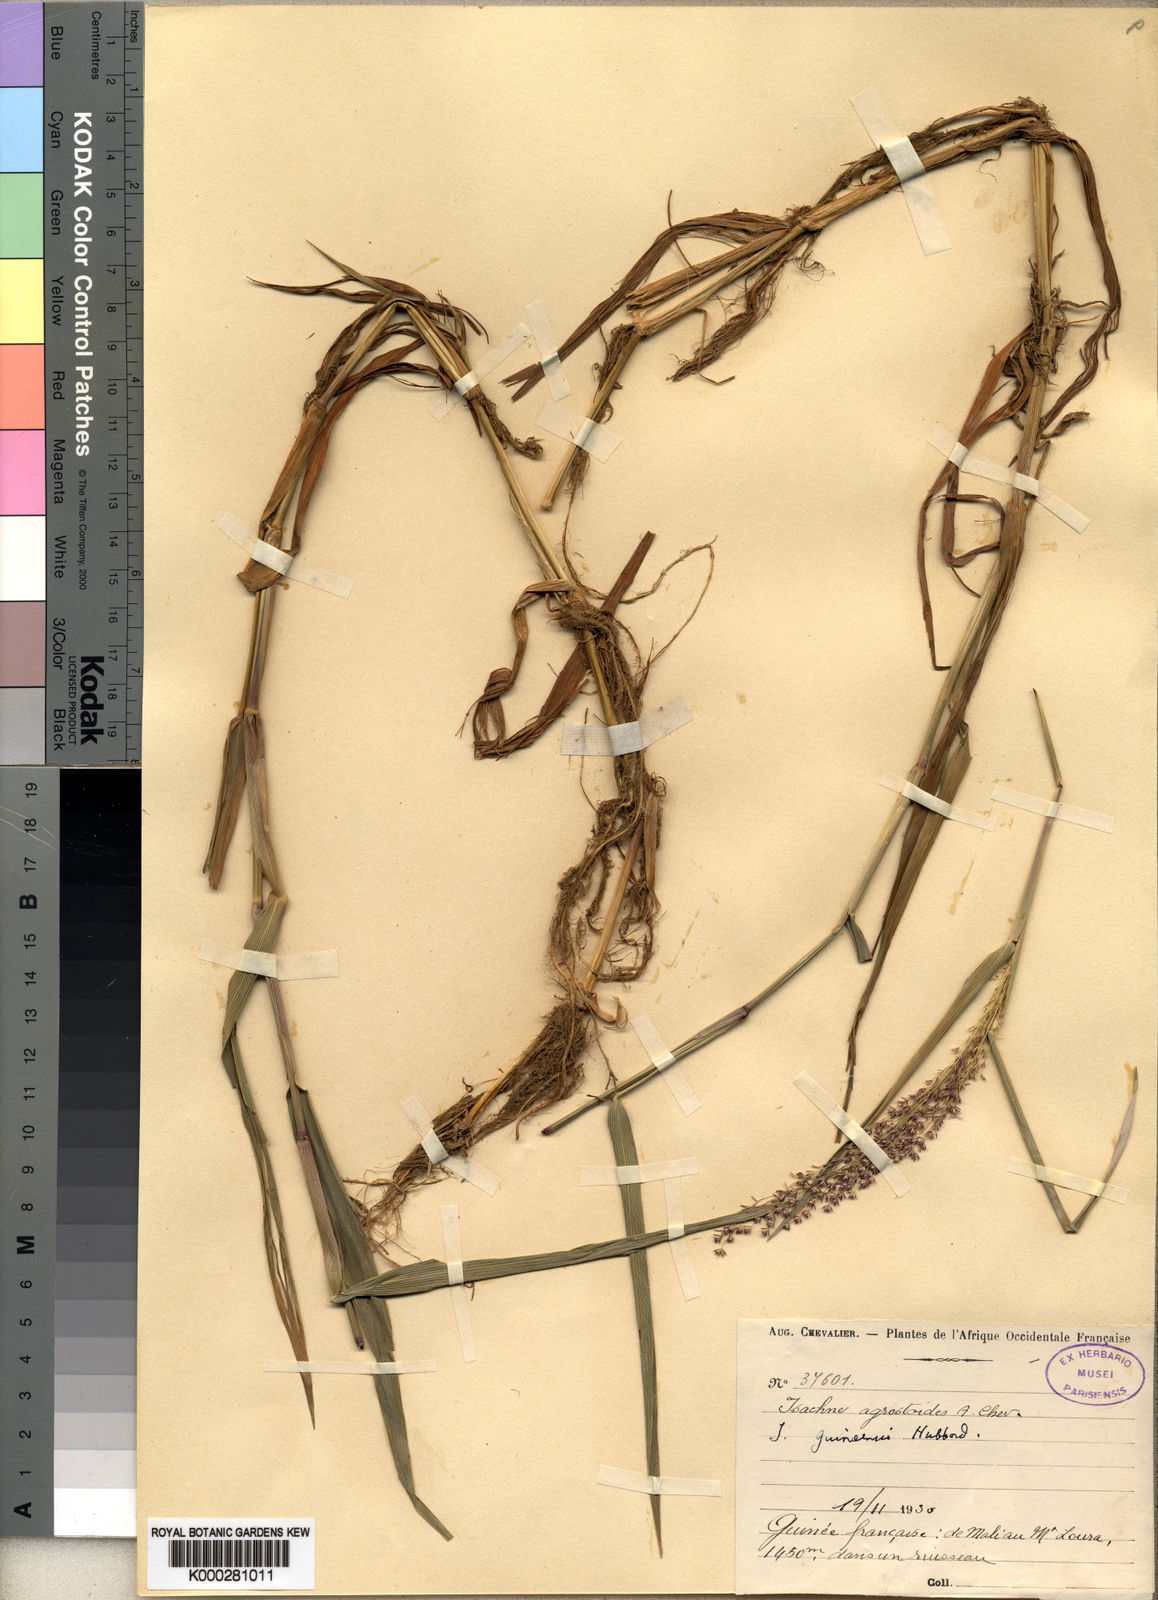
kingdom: Plantae
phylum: Tracheophyta
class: Liliopsida
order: Poales
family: Poaceae
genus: Isachne
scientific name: Isachne guineensis
